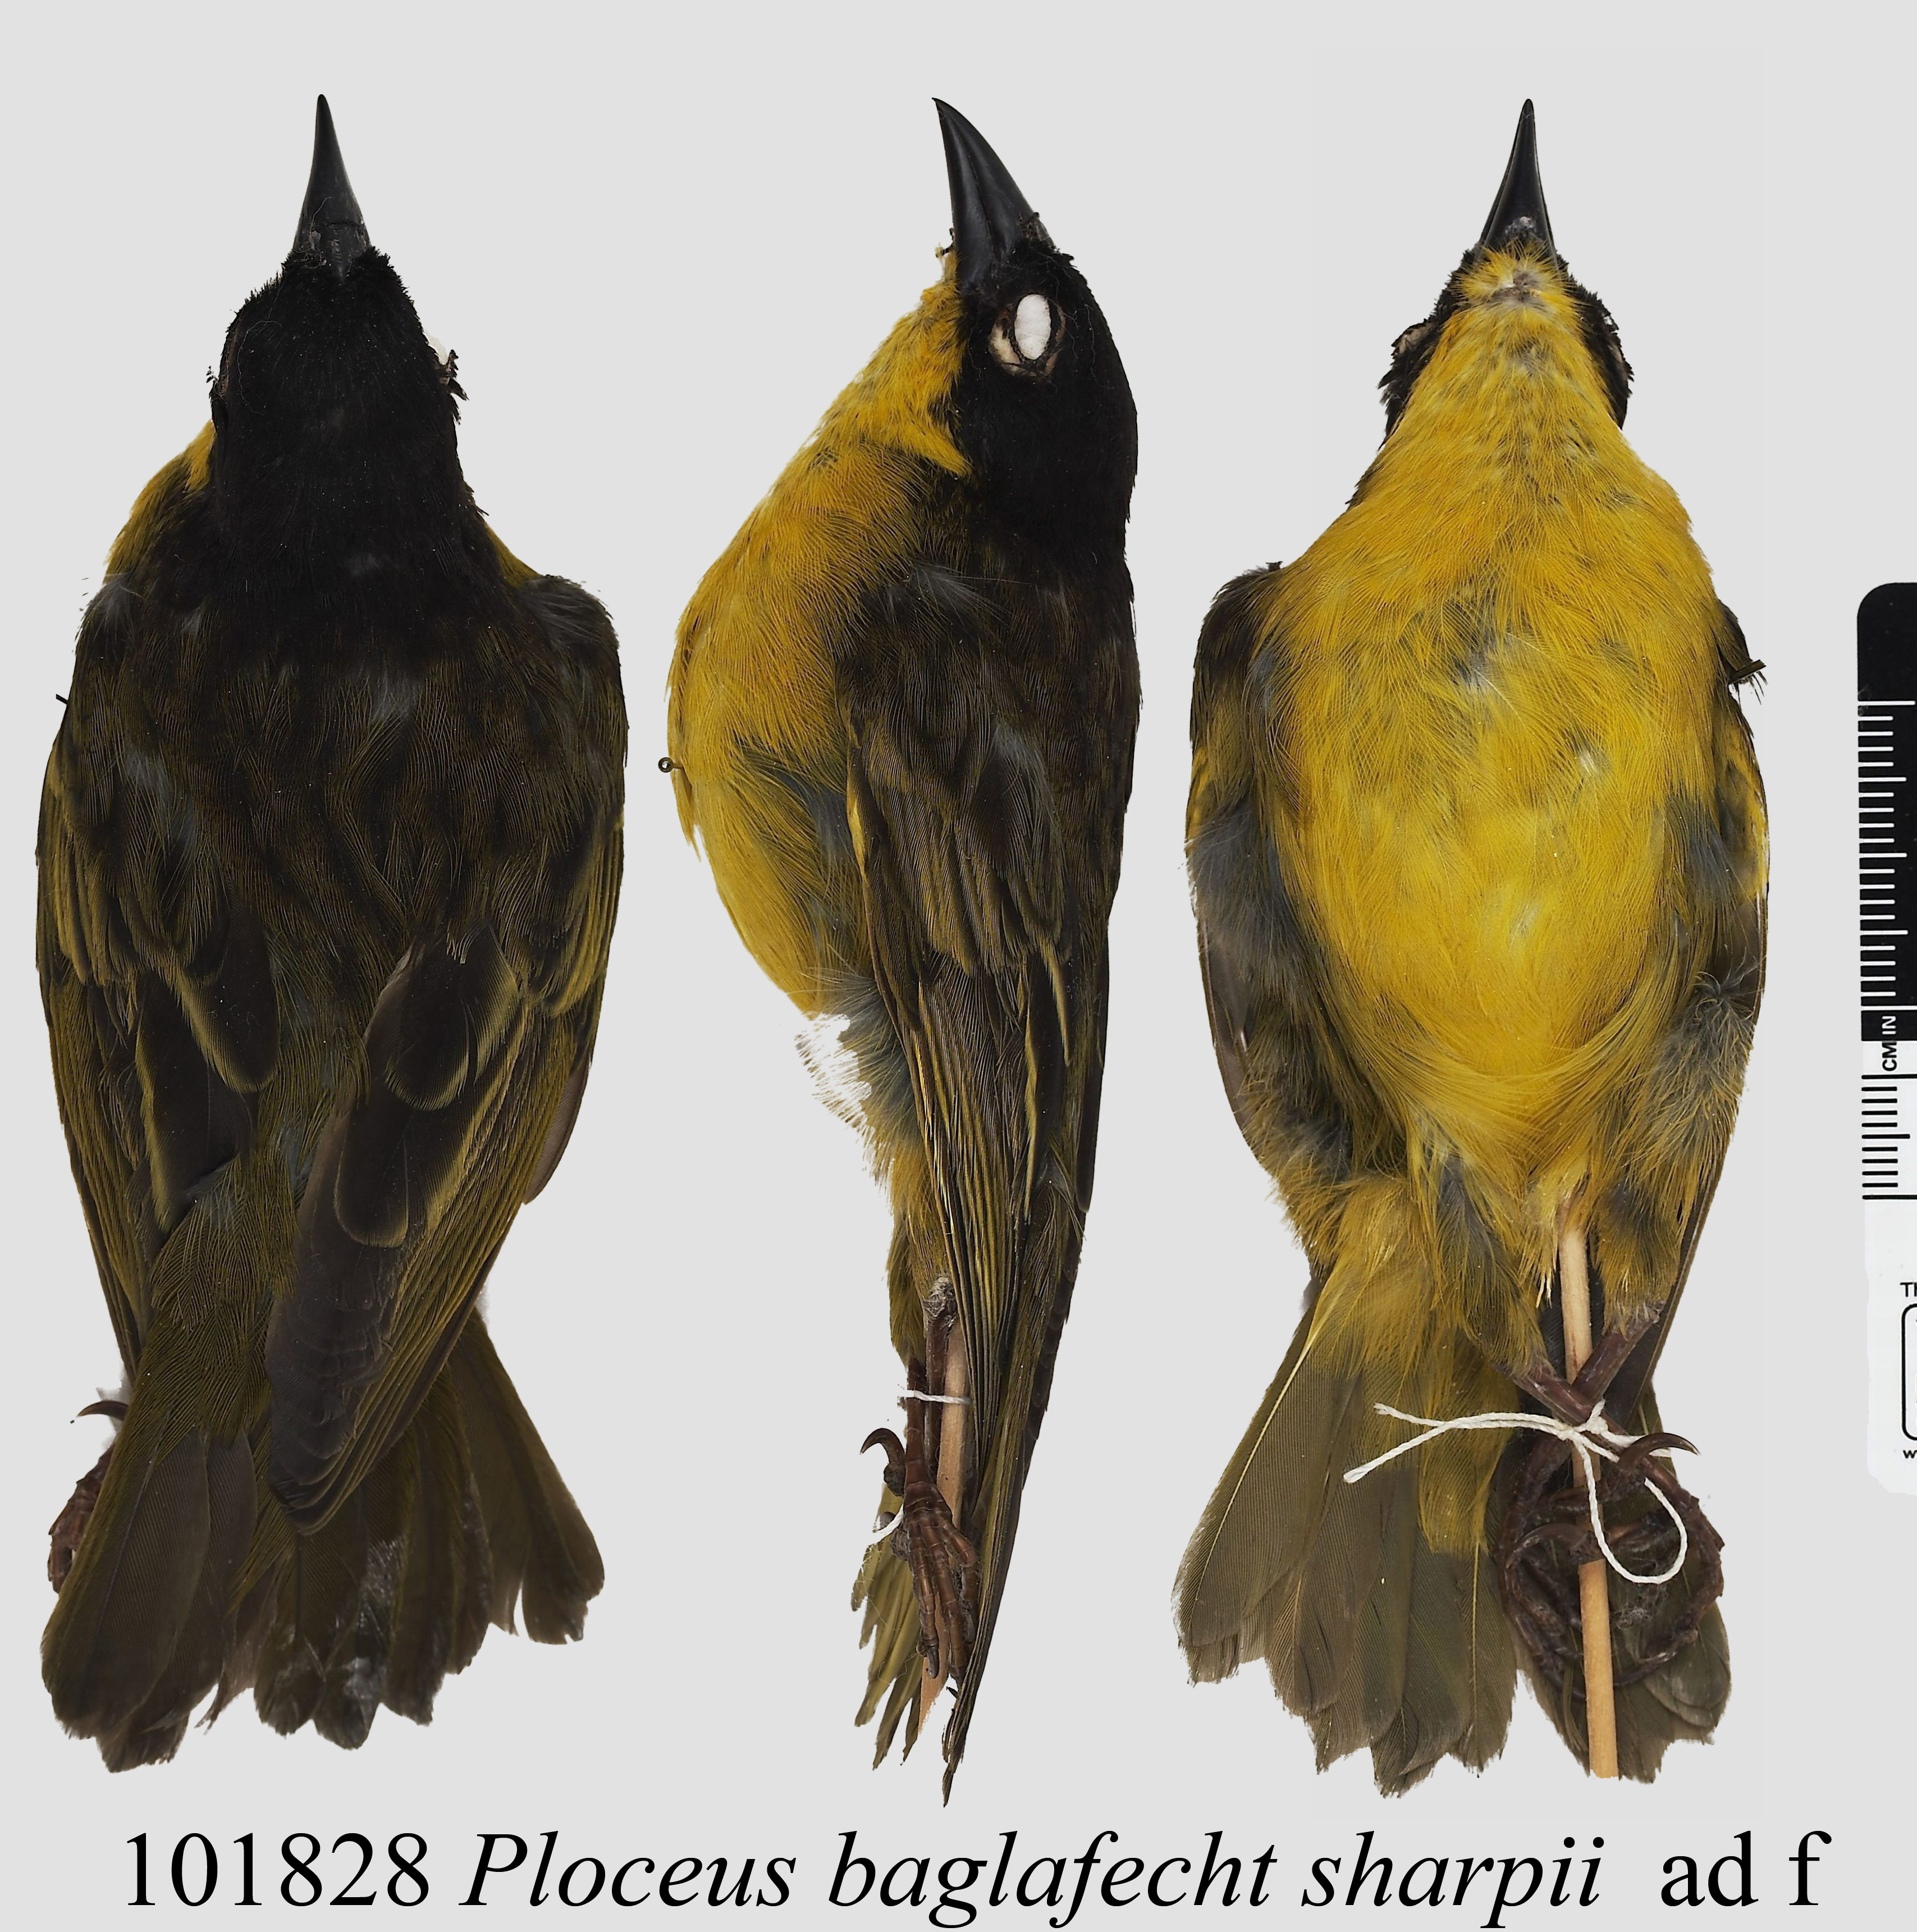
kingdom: Animalia
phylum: Chordata
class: Aves
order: Passeriformes
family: Ploceidae
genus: Ploceus
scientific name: Ploceus baglafecht
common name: Baglafecht weaver
